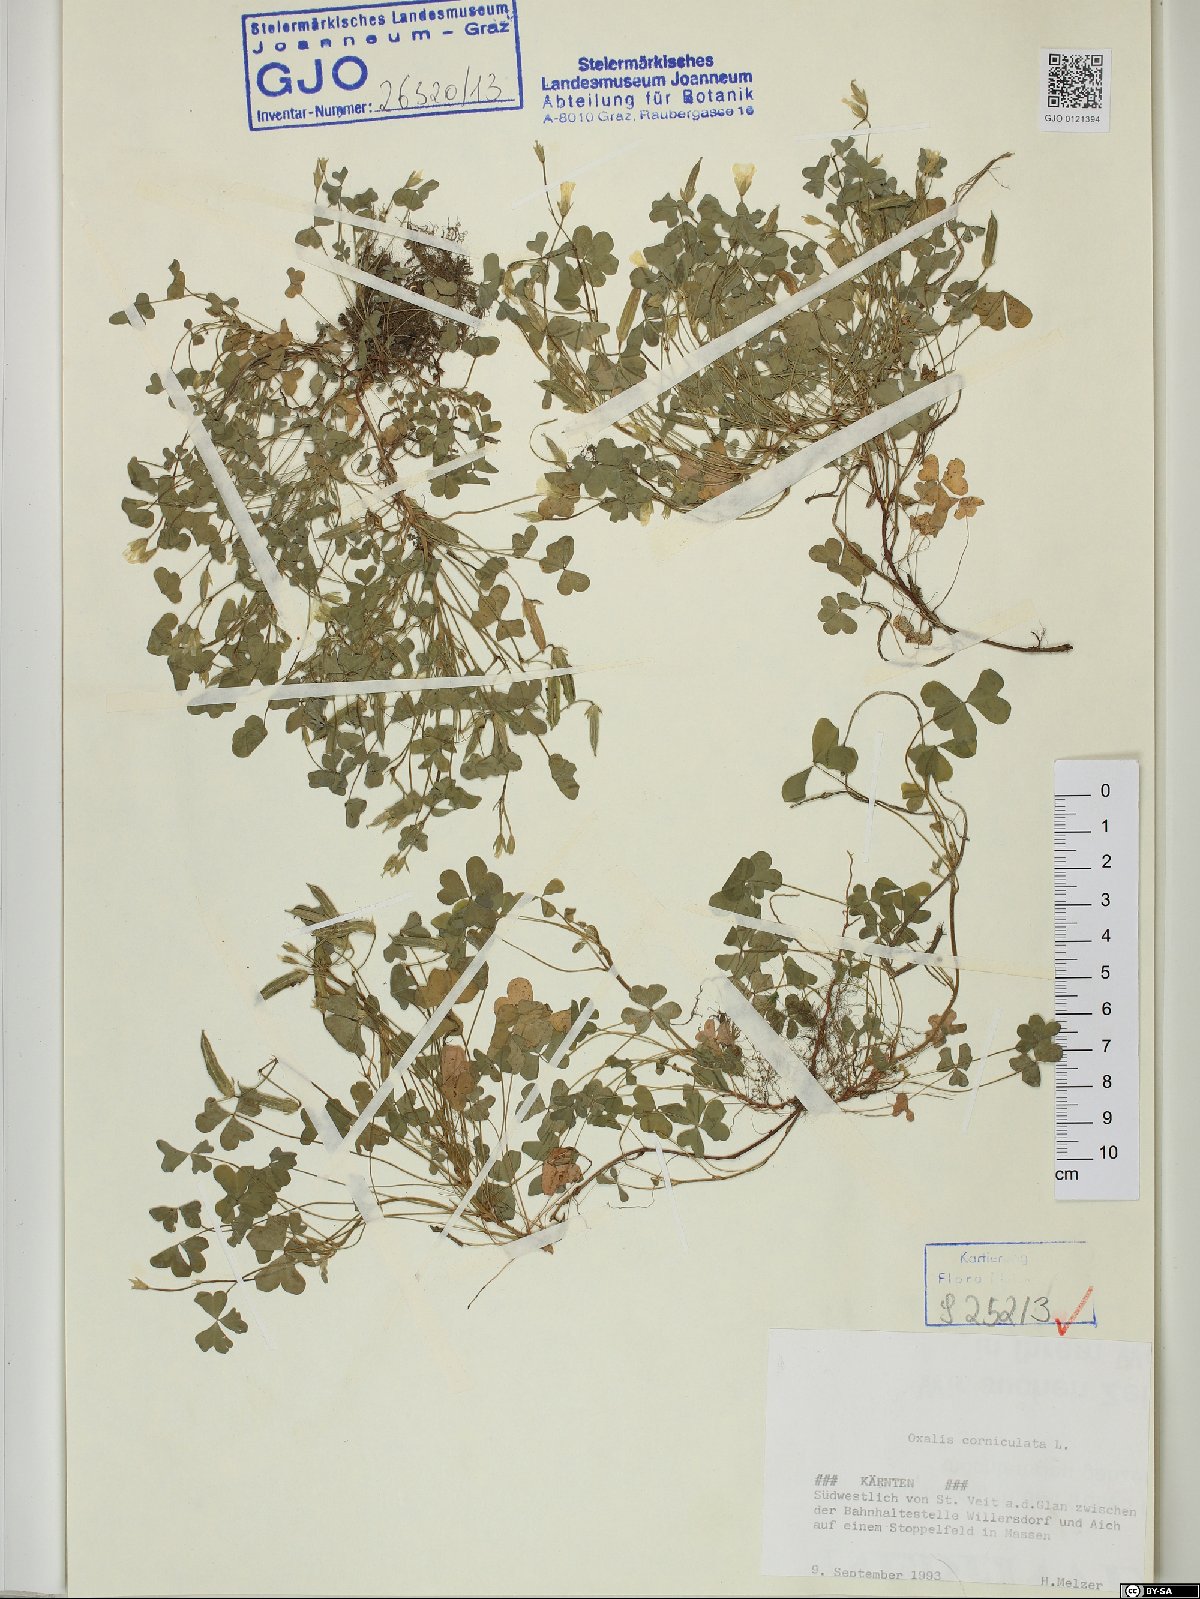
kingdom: Plantae
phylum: Tracheophyta
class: Magnoliopsida
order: Oxalidales
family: Oxalidaceae
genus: Oxalis
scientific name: Oxalis corniculata
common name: Procumbent yellow-sorrel
